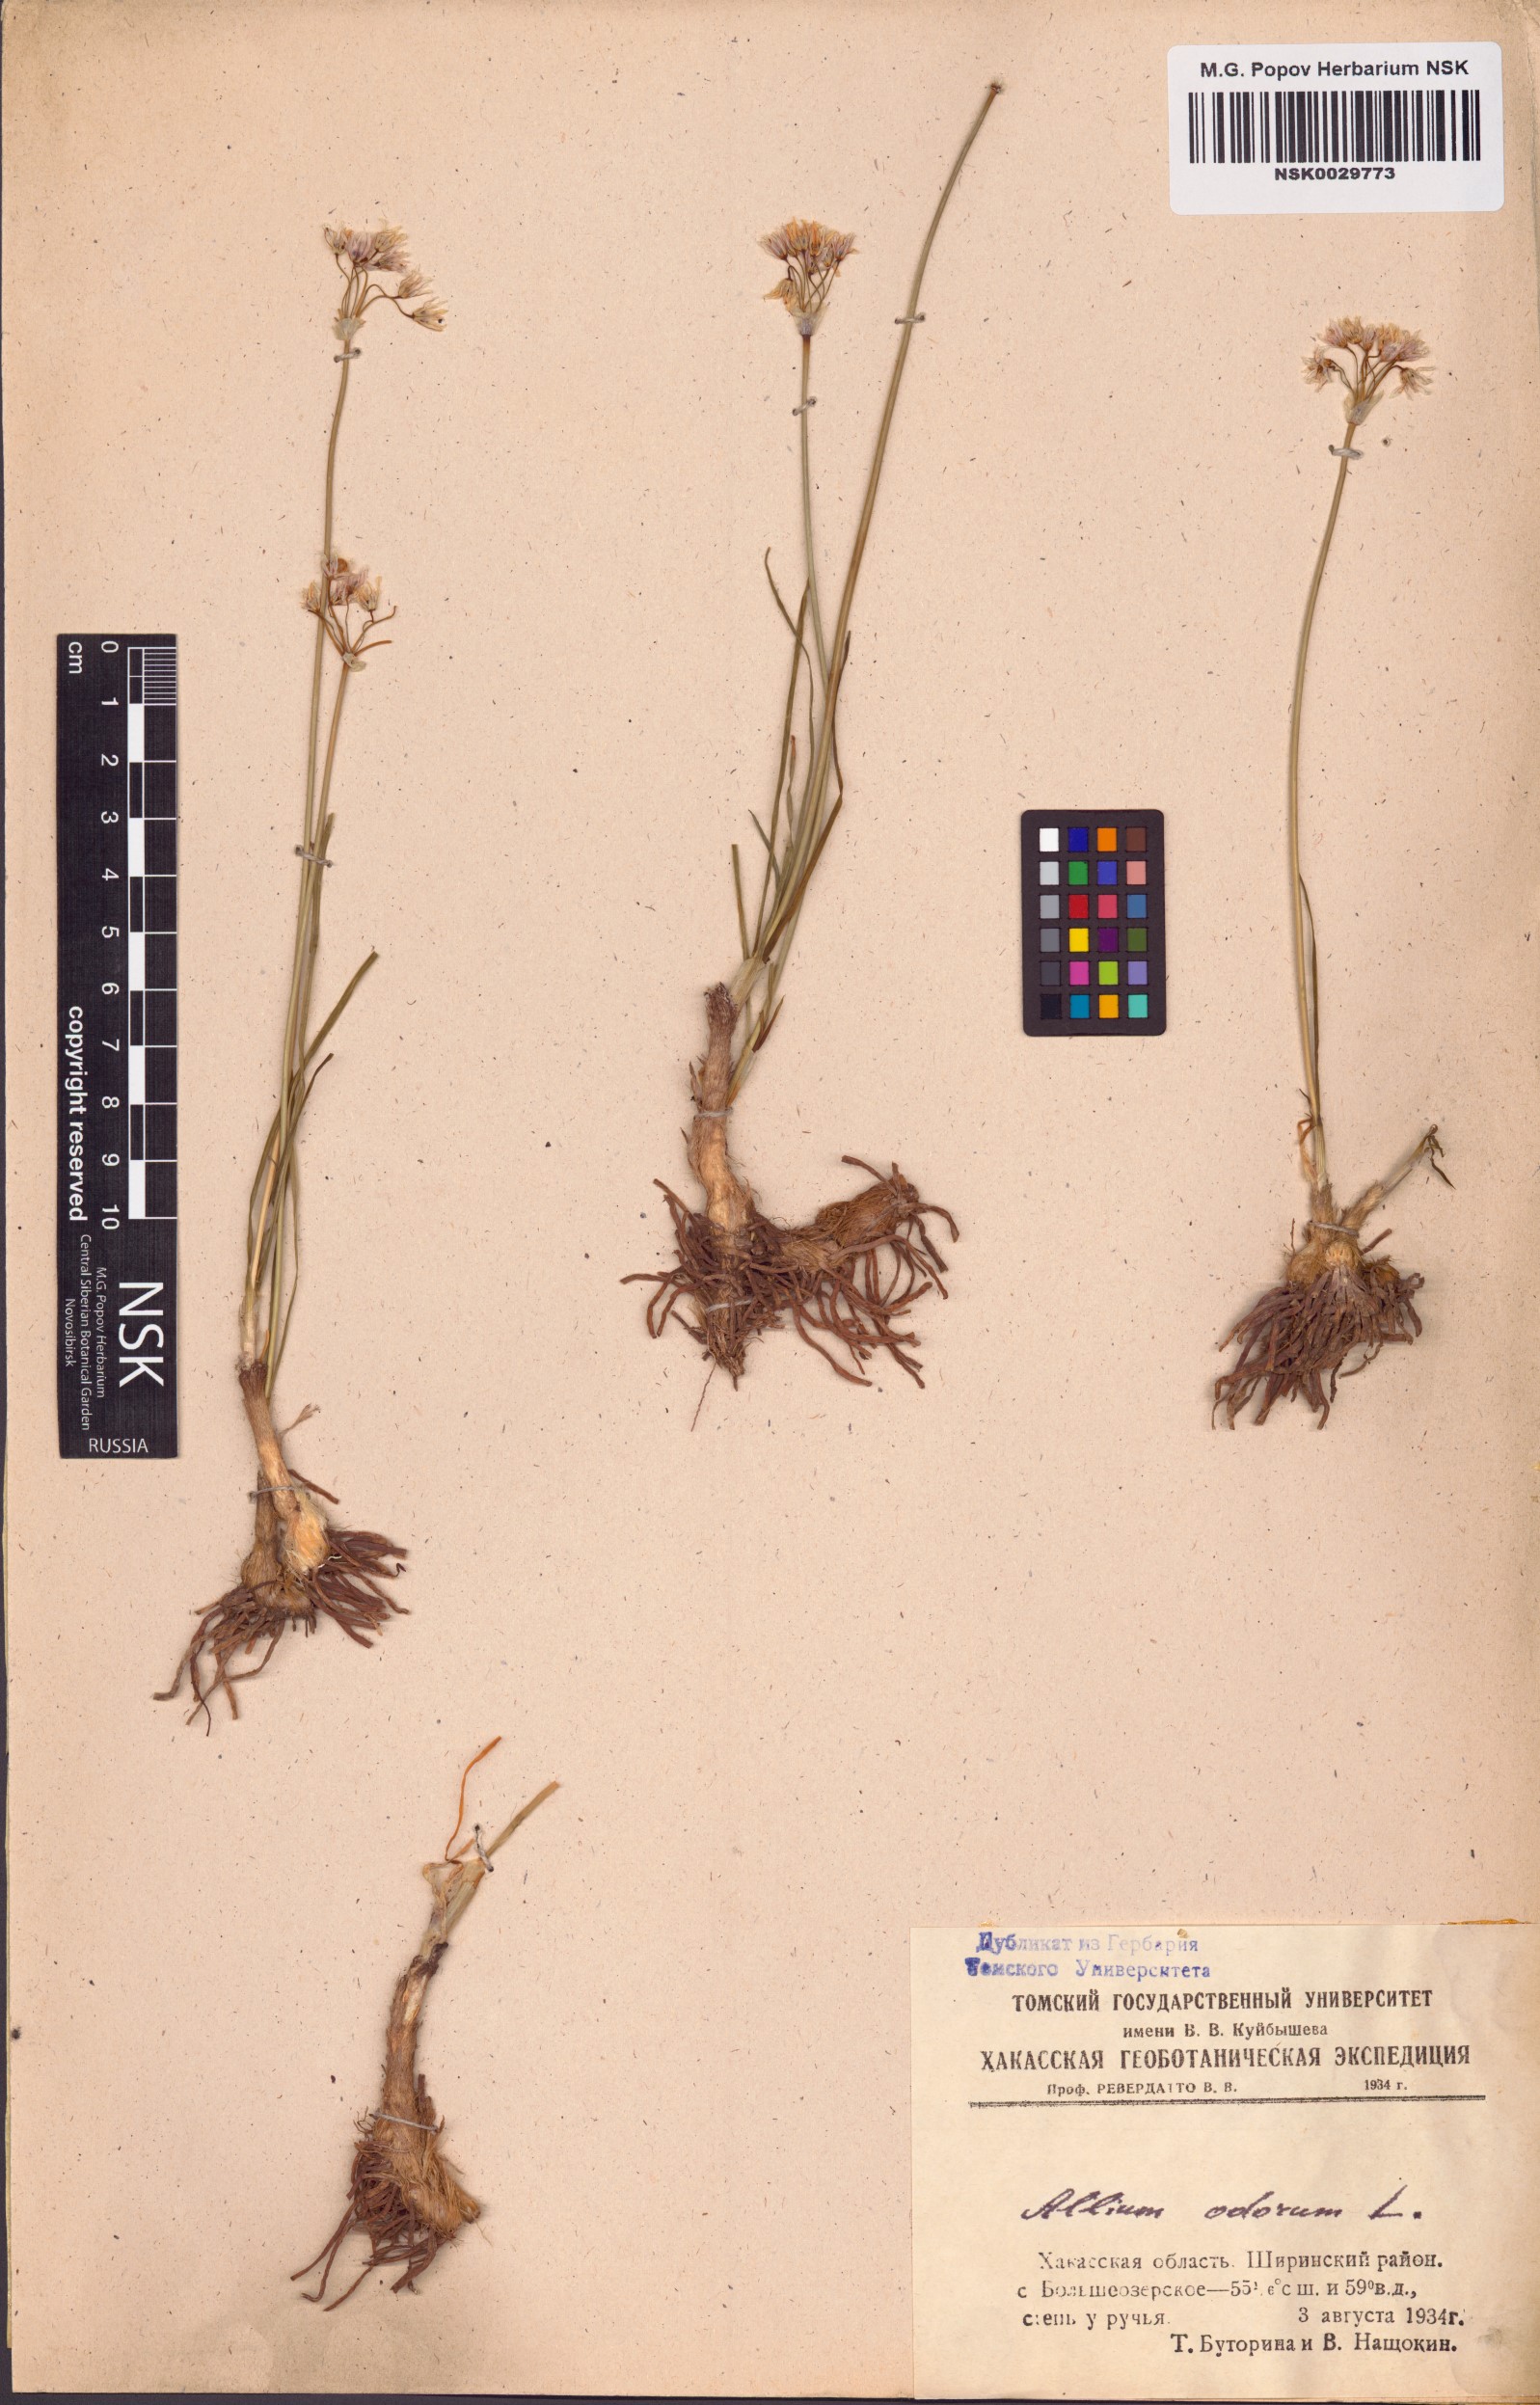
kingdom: Plantae
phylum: Tracheophyta
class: Liliopsida
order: Asparagales
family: Amaryllidaceae
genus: Allium
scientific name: Allium ramosum
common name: Fragrant garlic
